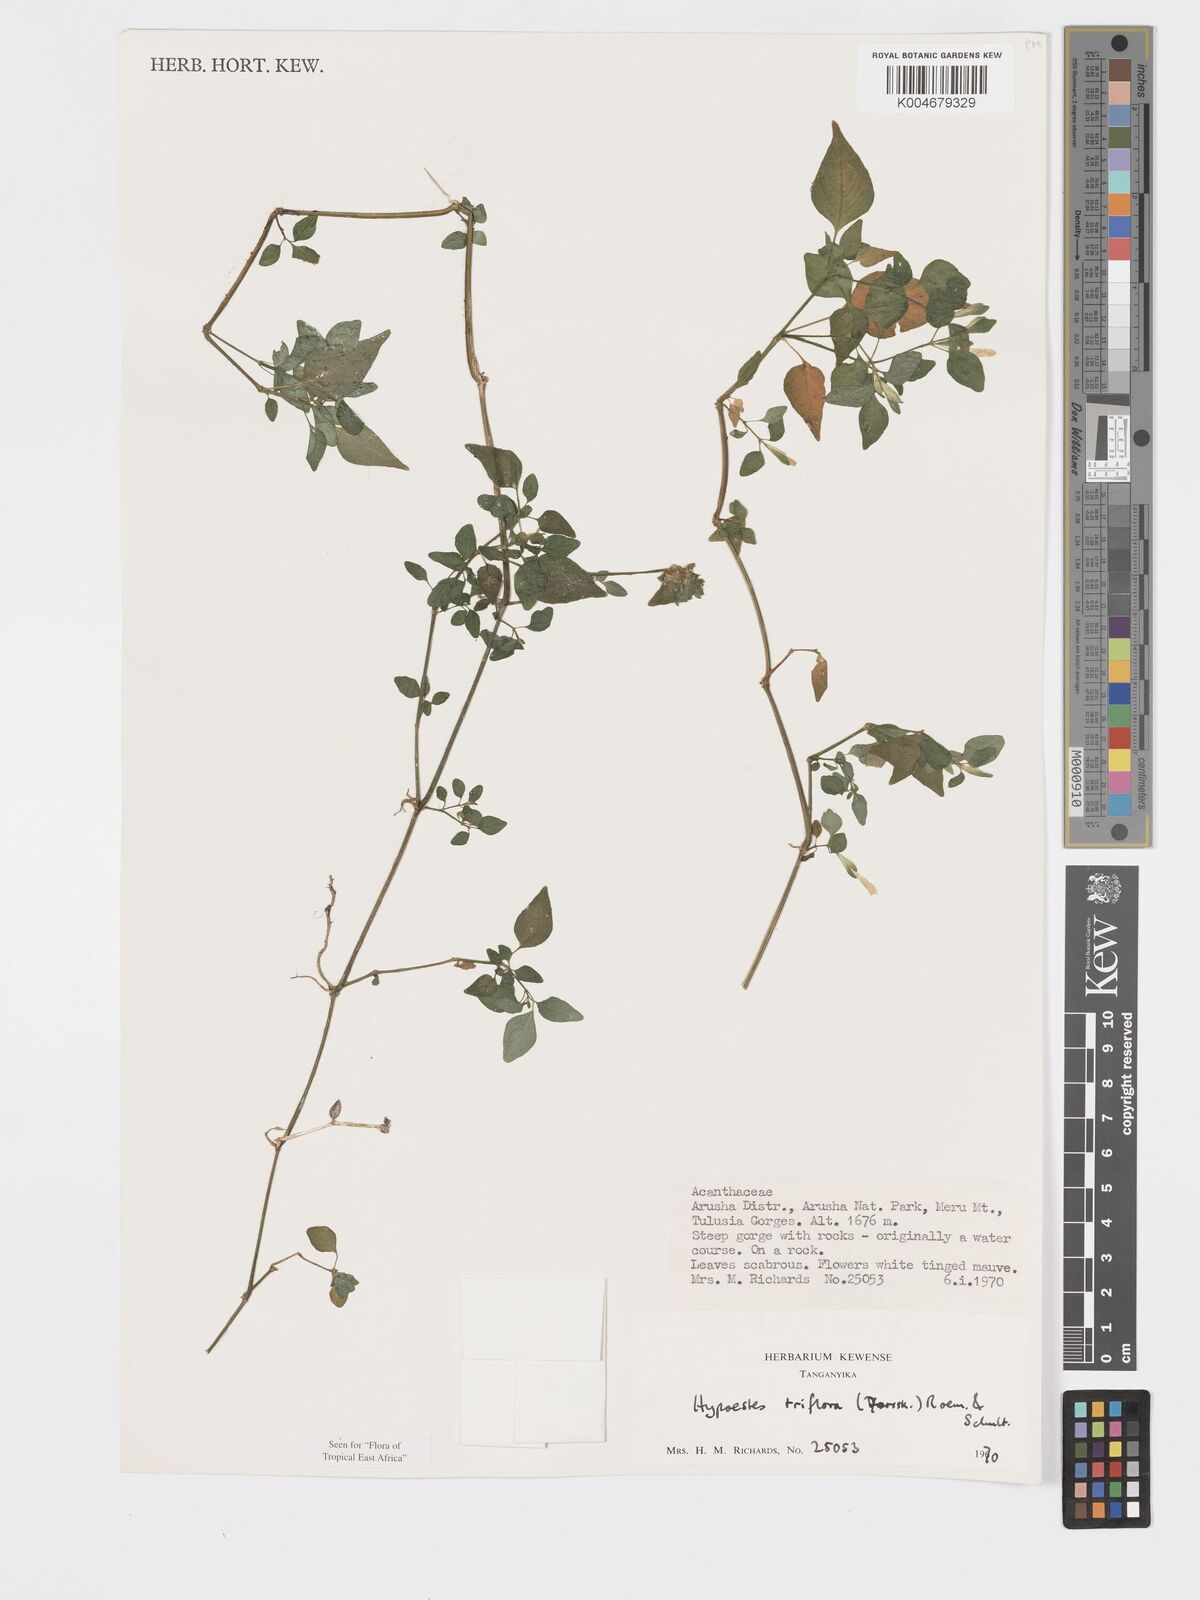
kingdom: Plantae
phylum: Tracheophyta
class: Magnoliopsida
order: Lamiales
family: Acanthaceae
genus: Hypoestes
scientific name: Hypoestes triflora
